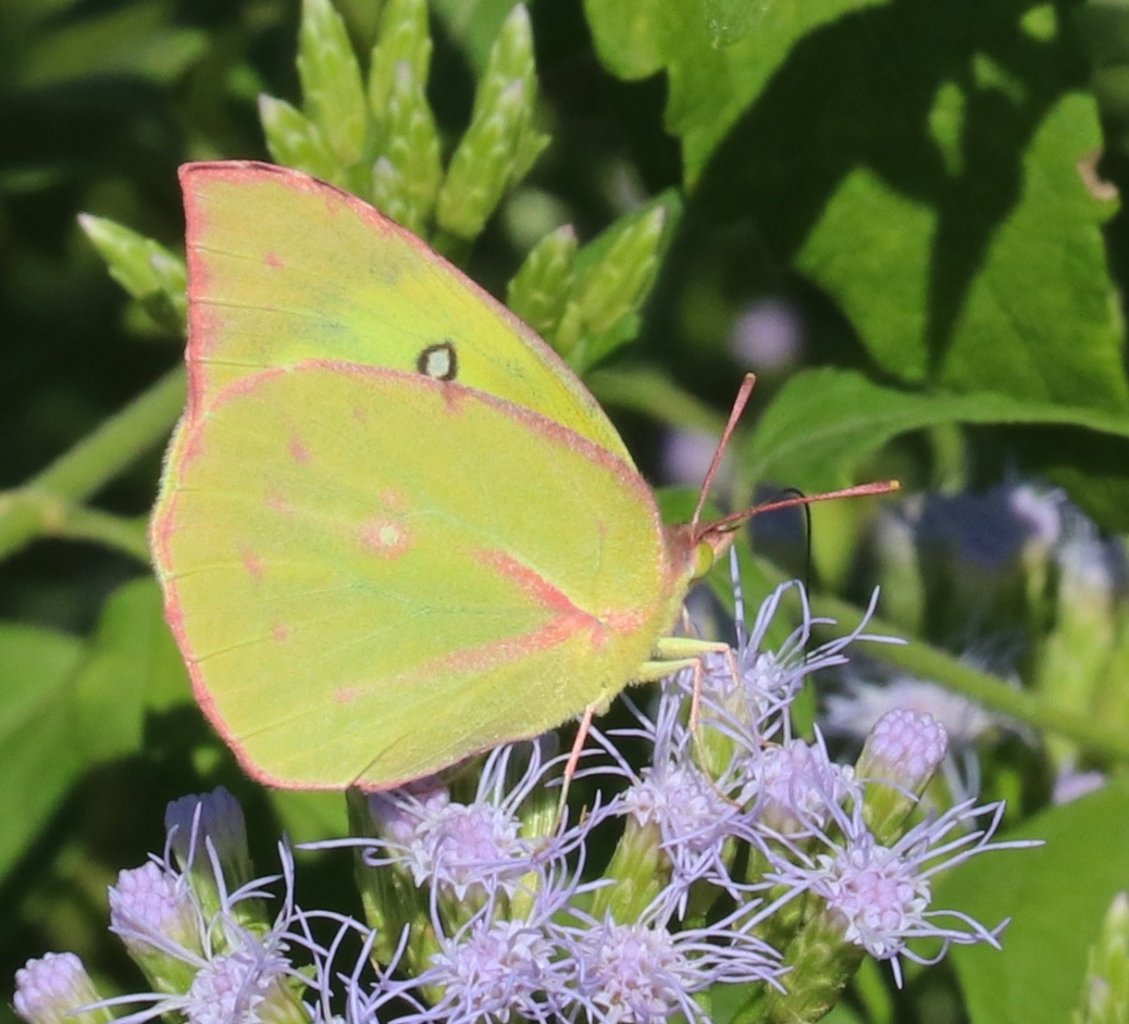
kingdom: Animalia
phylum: Arthropoda
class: Insecta
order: Lepidoptera
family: Pieridae
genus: Zerene
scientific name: Zerene cesonia
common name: Southern Dogface
